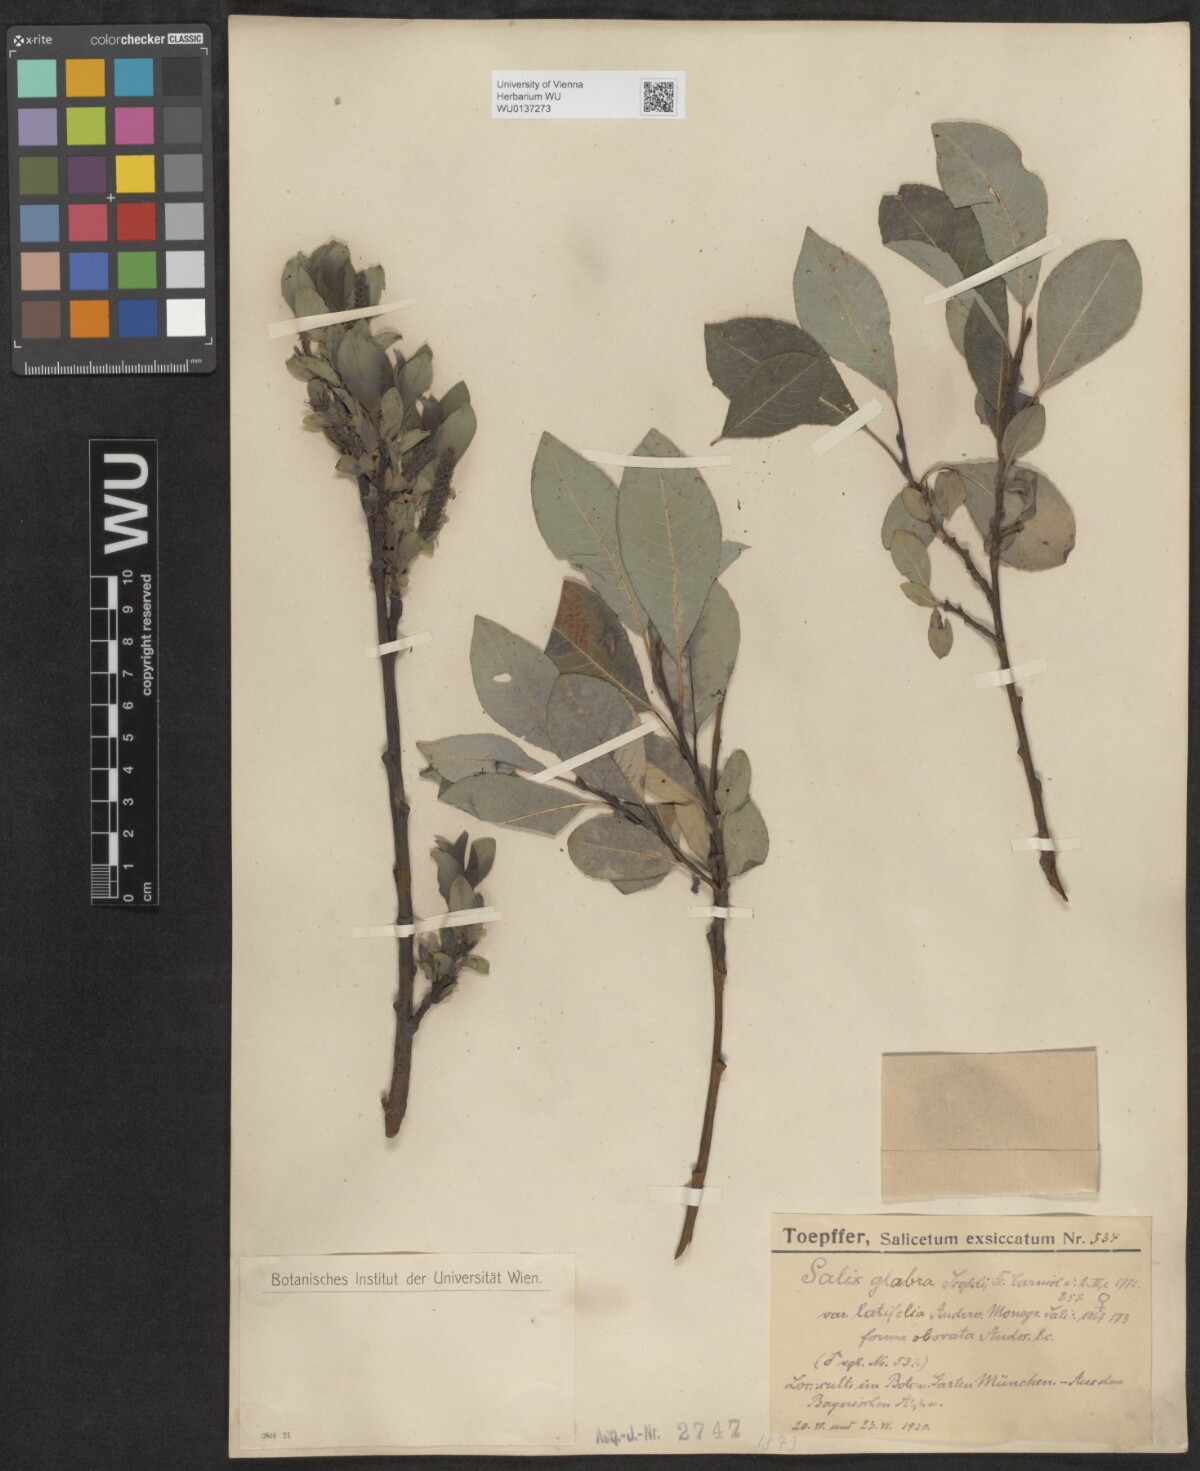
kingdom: Plantae
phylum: Tracheophyta
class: Magnoliopsida
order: Malpighiales
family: Salicaceae
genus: Salix
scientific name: Salix glabra
